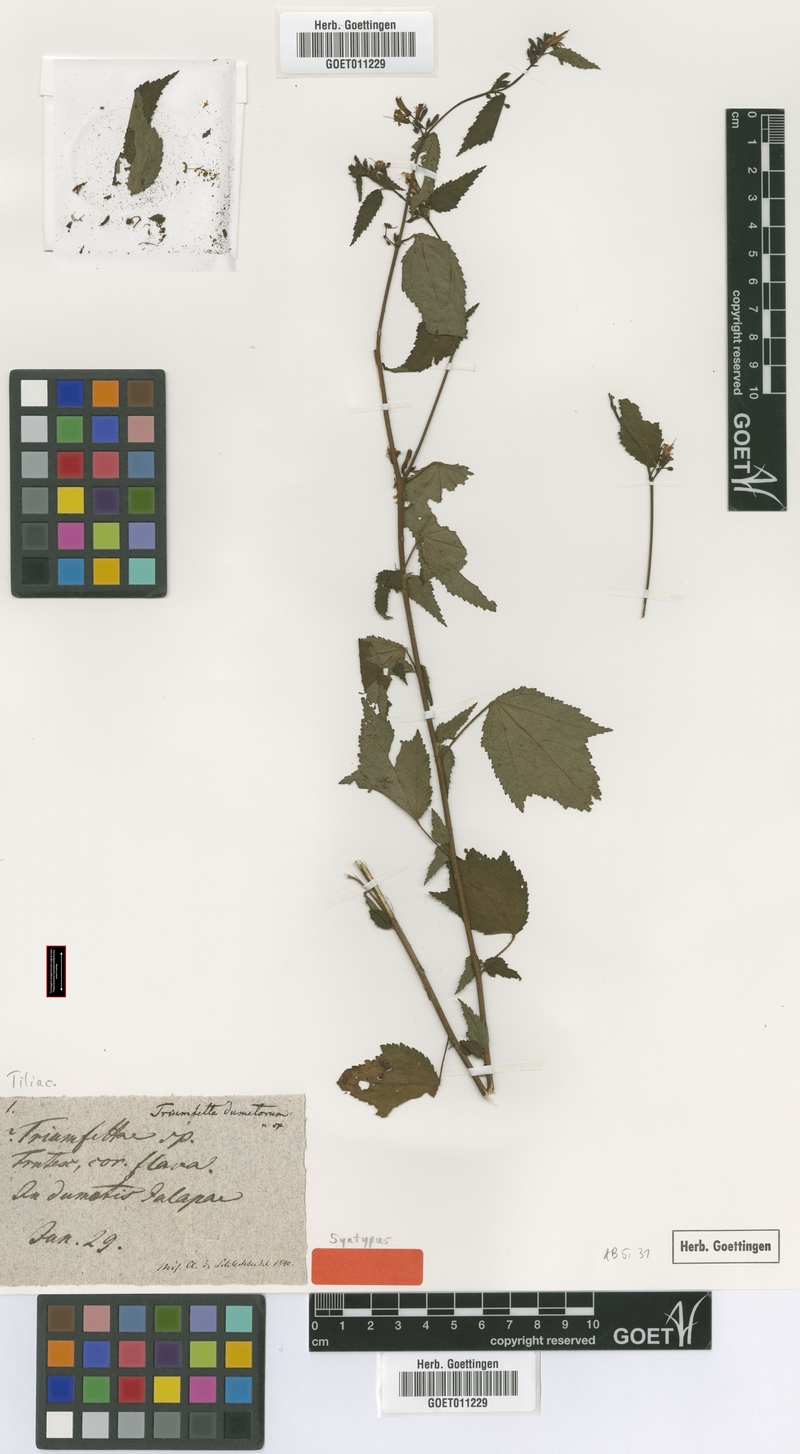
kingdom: Plantae
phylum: Tracheophyta
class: Magnoliopsida
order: Malvales
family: Malvaceae
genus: Triumfetta
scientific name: Triumfetta bogotensis
